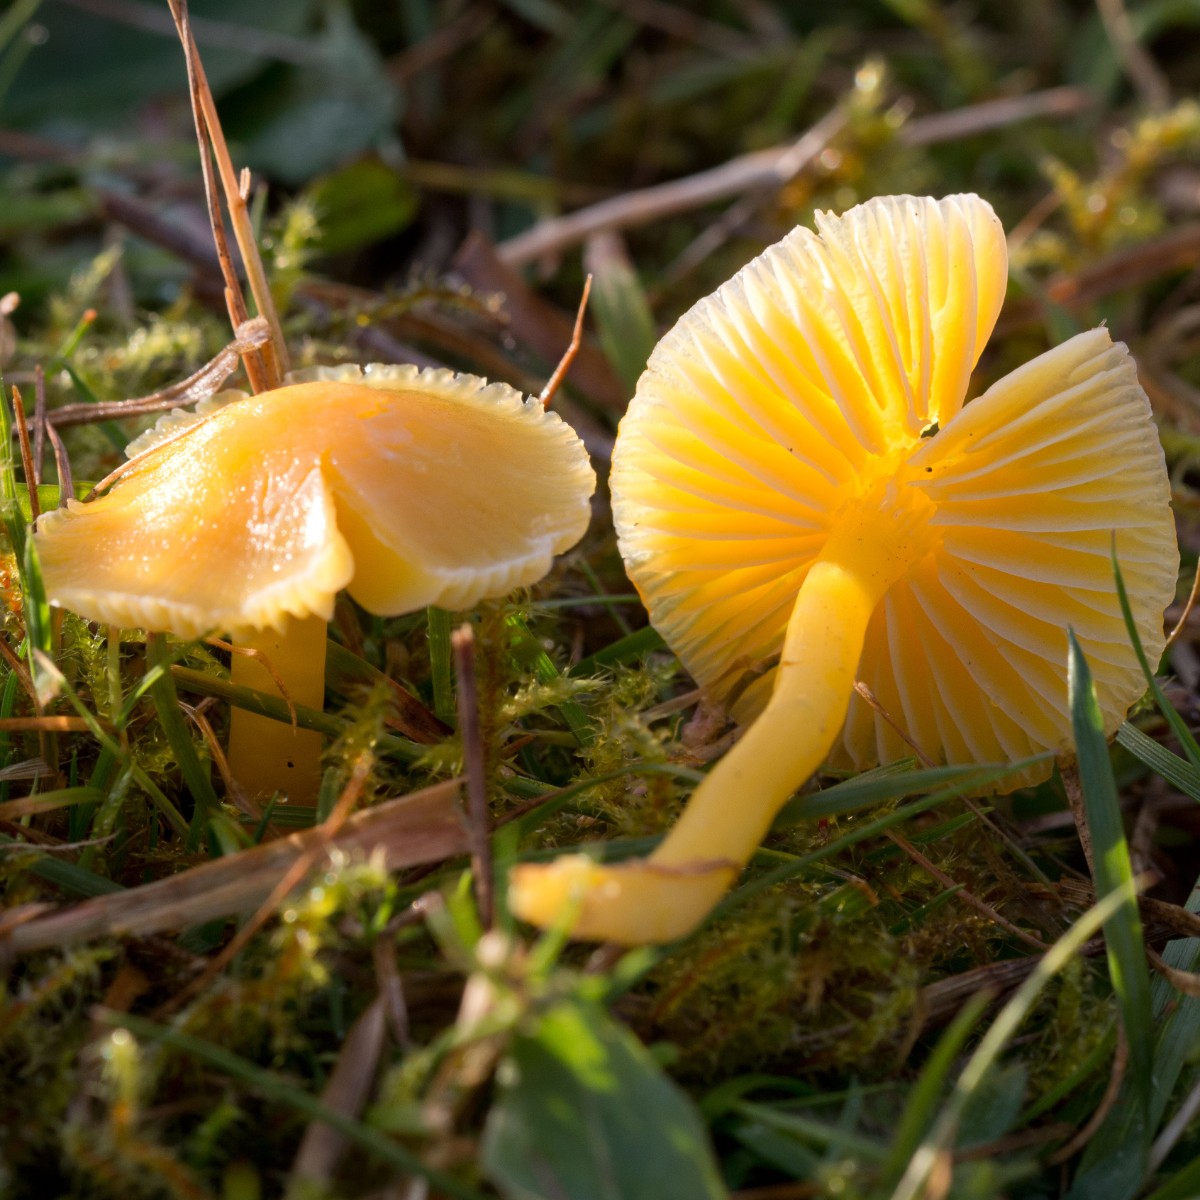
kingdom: Fungi
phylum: Basidiomycota
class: Agaricomycetes
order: Agaricales
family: Hygrophoraceae
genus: Hygrocybe
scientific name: Hygrocybe ceracea
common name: voksgul vokshat
